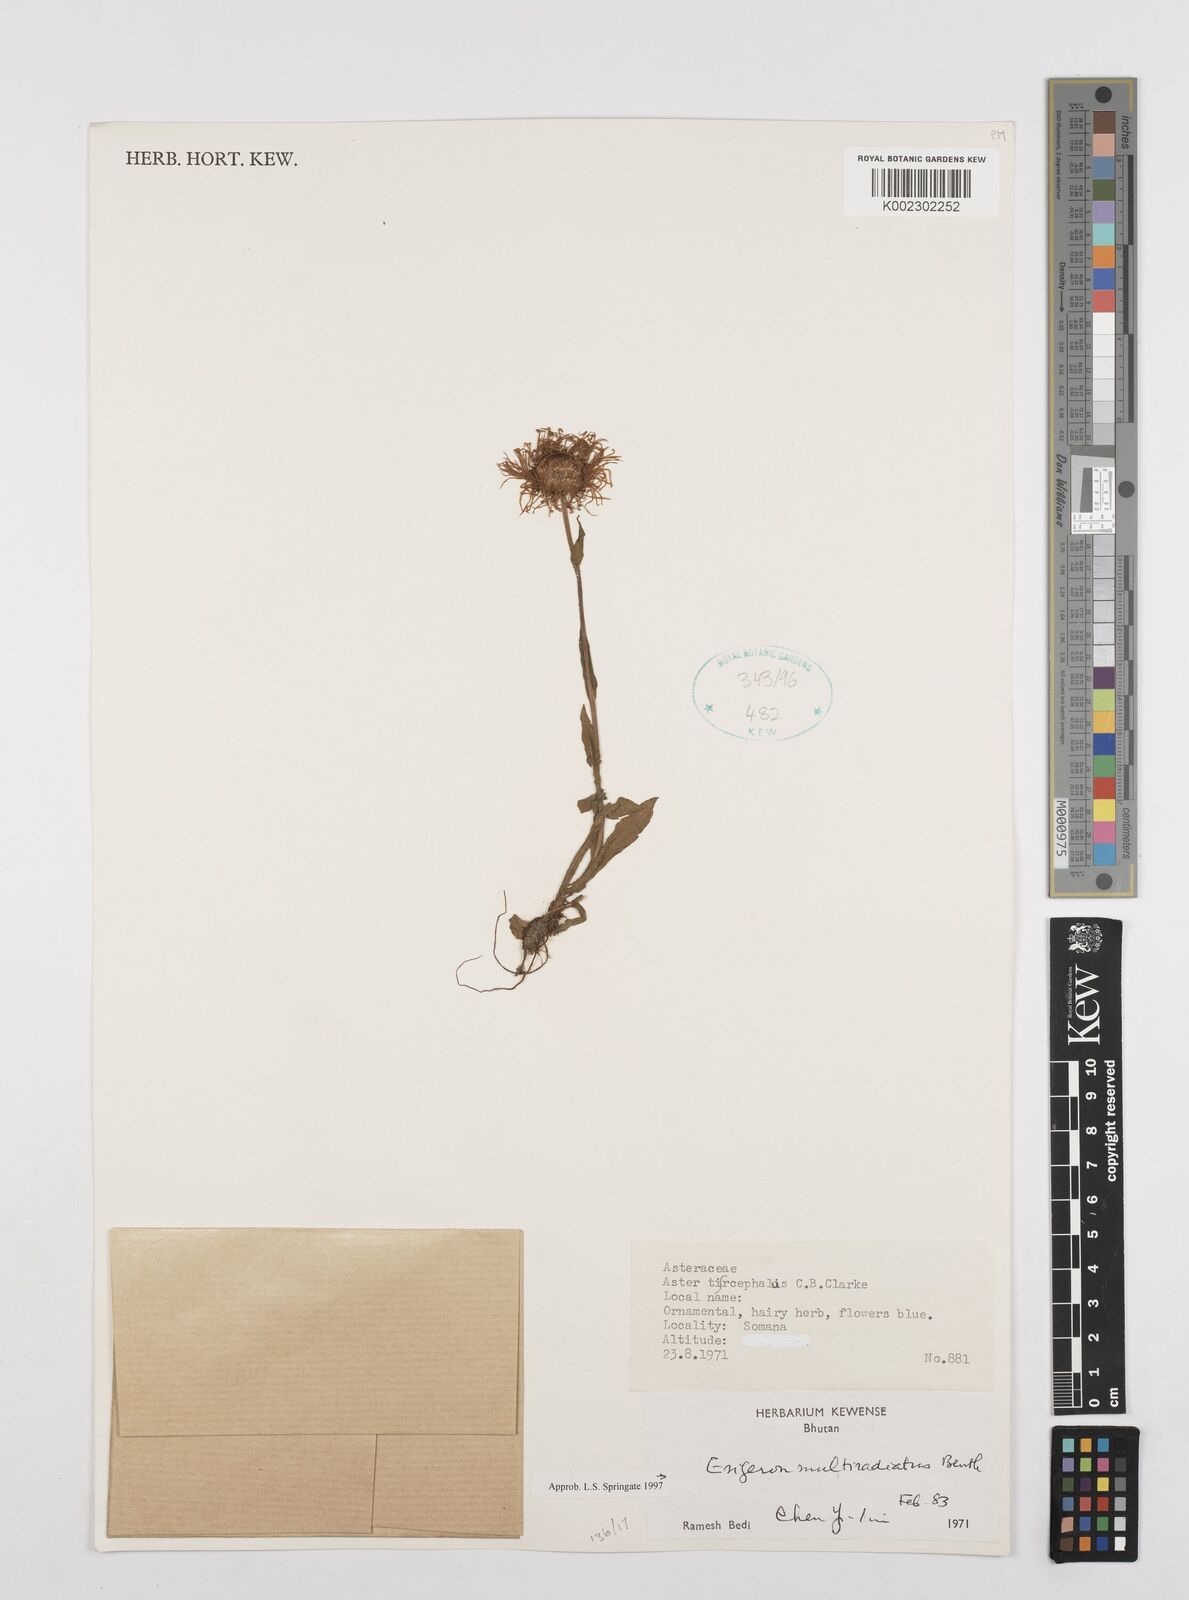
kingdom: Plantae
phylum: Tracheophyta
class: Magnoliopsida
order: Asterales
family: Asteraceae
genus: Erigeron
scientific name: Erigeron multiradiatus
